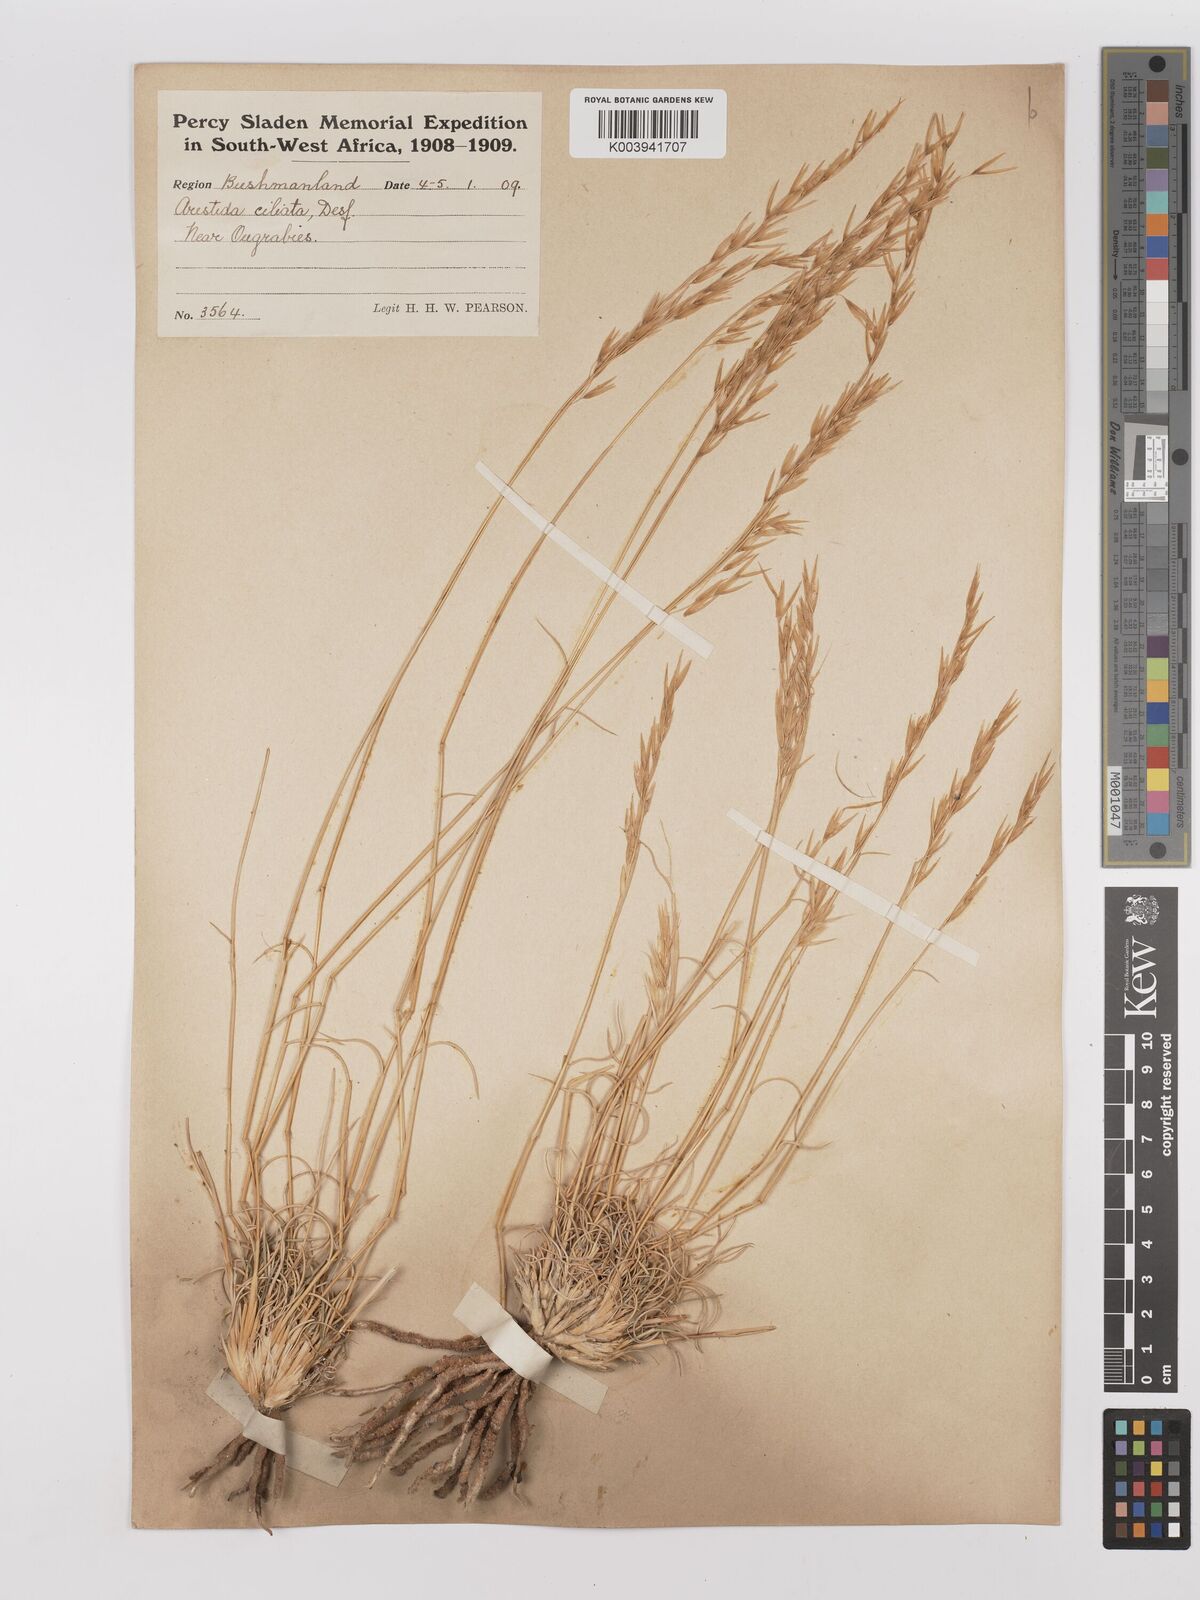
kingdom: Plantae
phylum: Tracheophyta
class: Liliopsida
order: Poales
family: Poaceae
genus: Stipagrostis
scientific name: Stipagrostis ciliata
